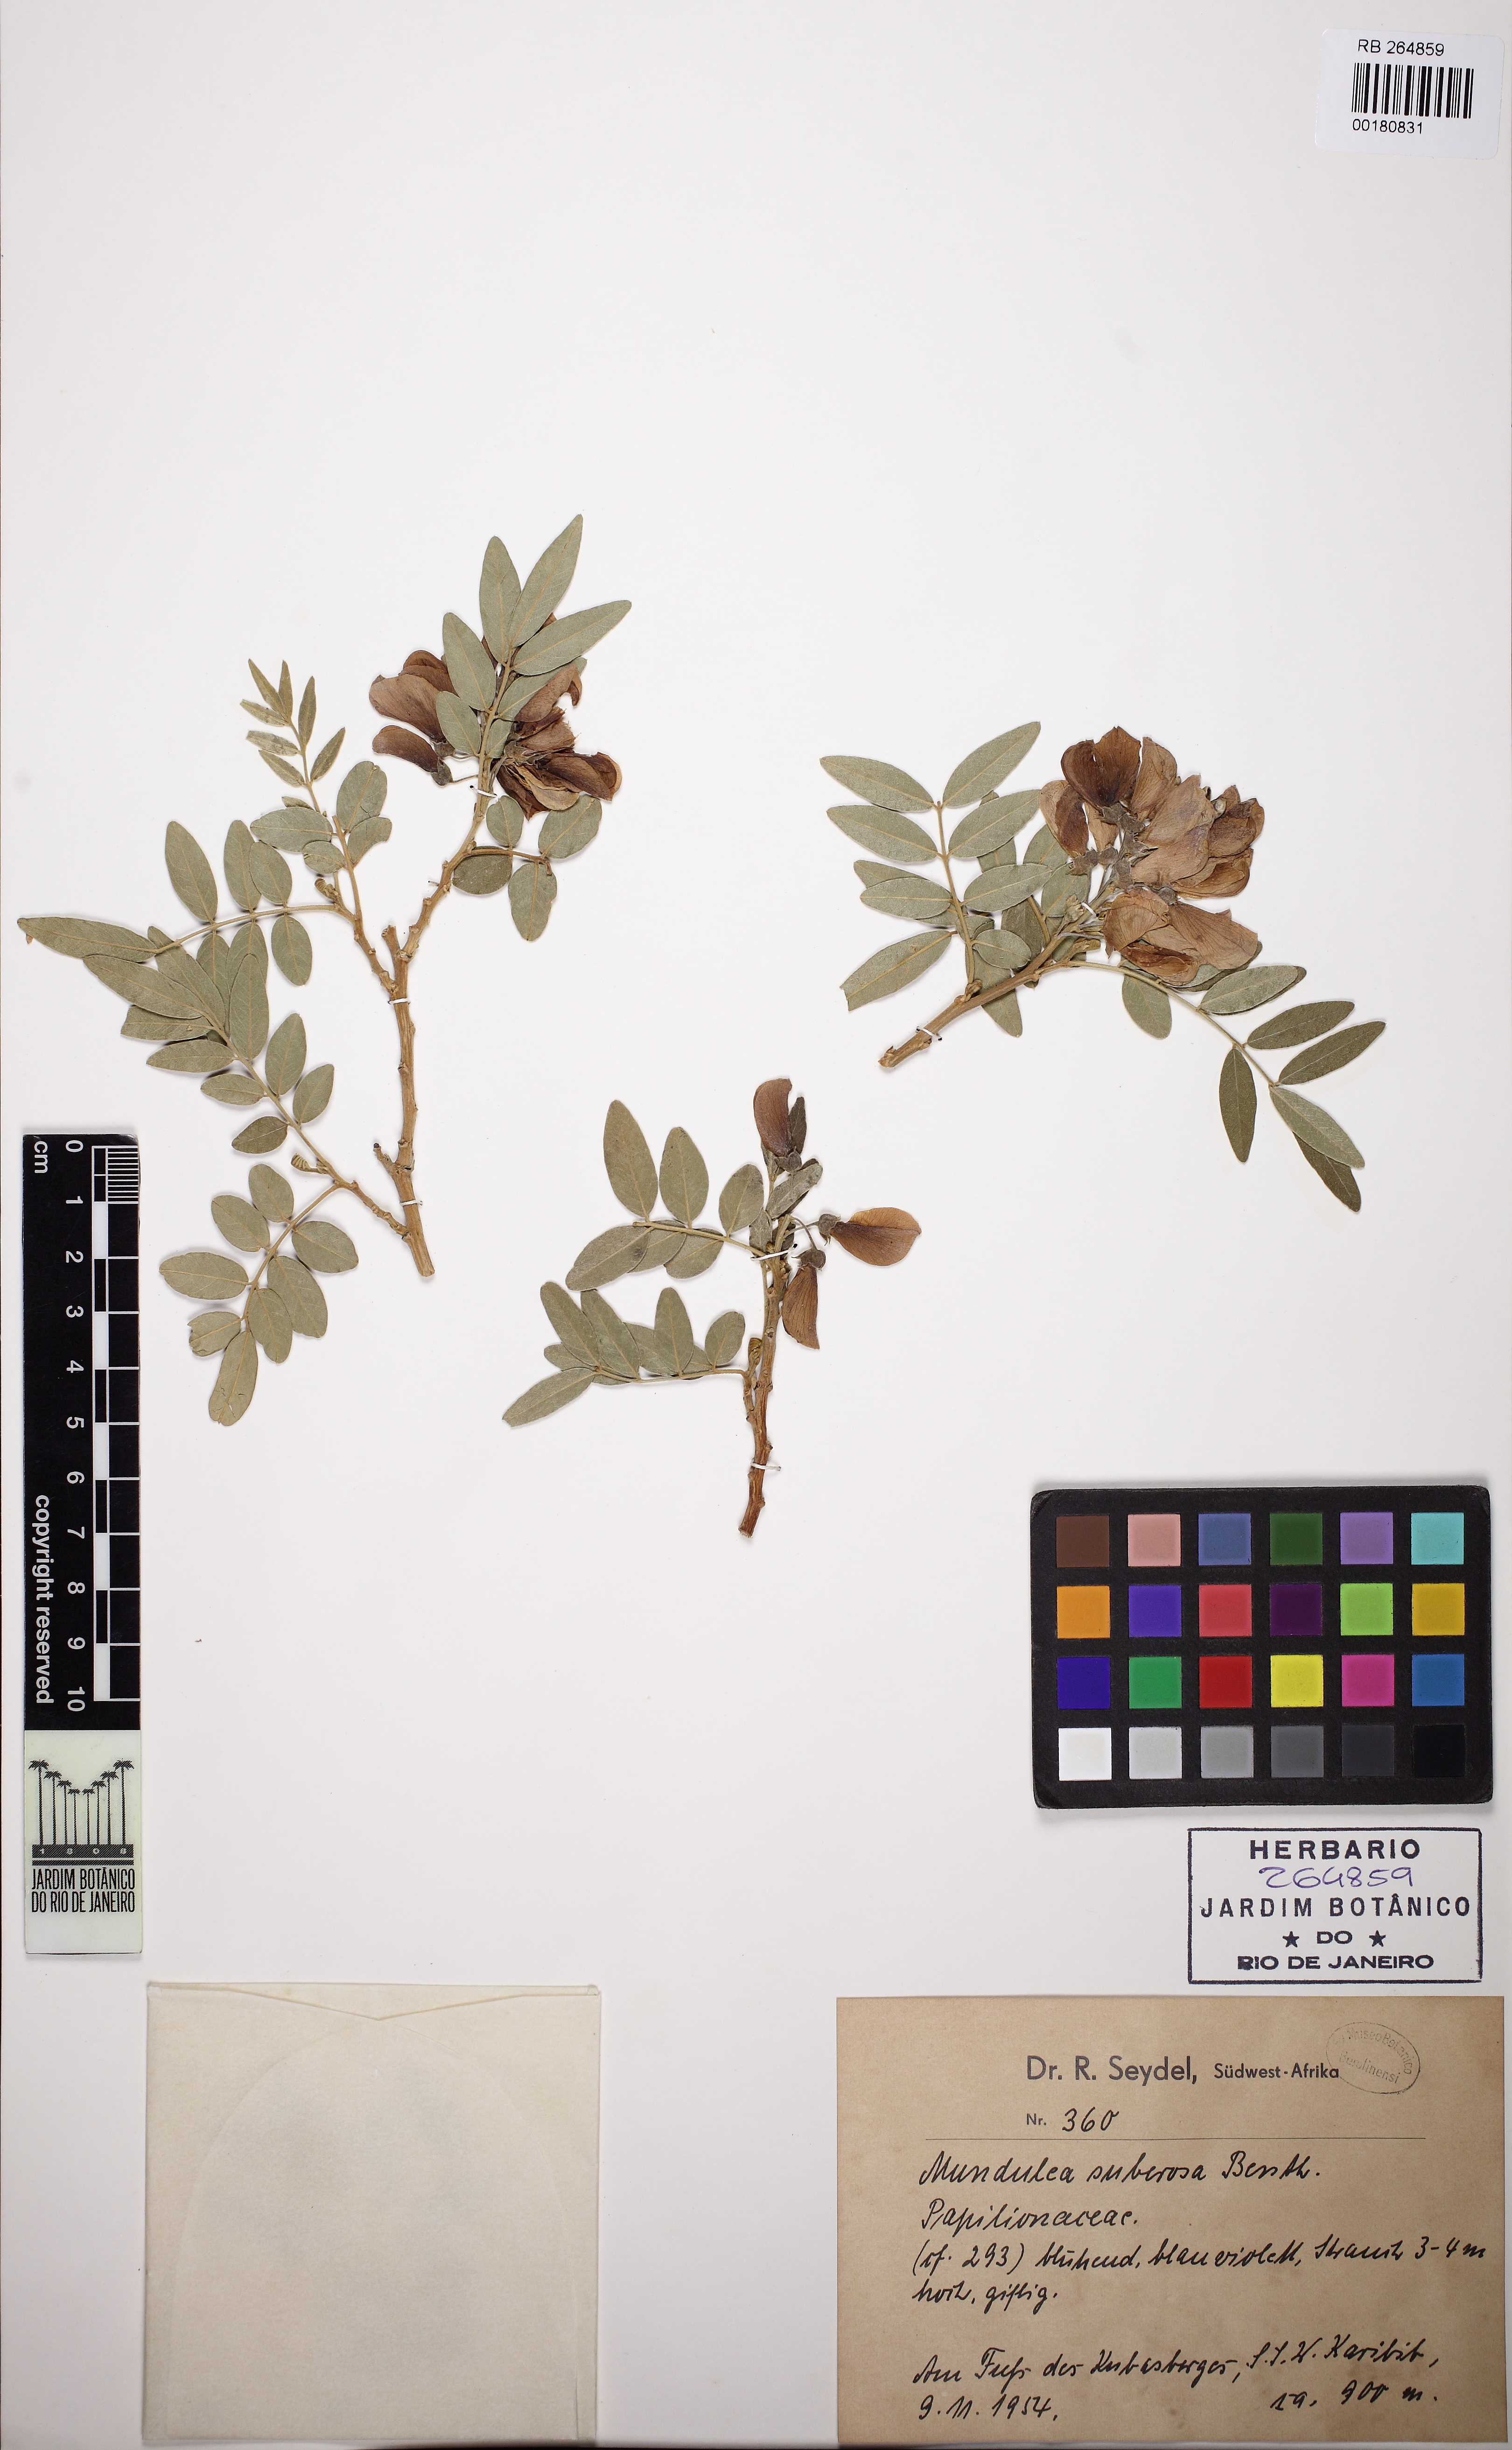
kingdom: Plantae
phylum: Tracheophyta
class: Magnoliopsida
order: Fabales
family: Fabaceae
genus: Mundulea
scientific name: Mundulea sericea
